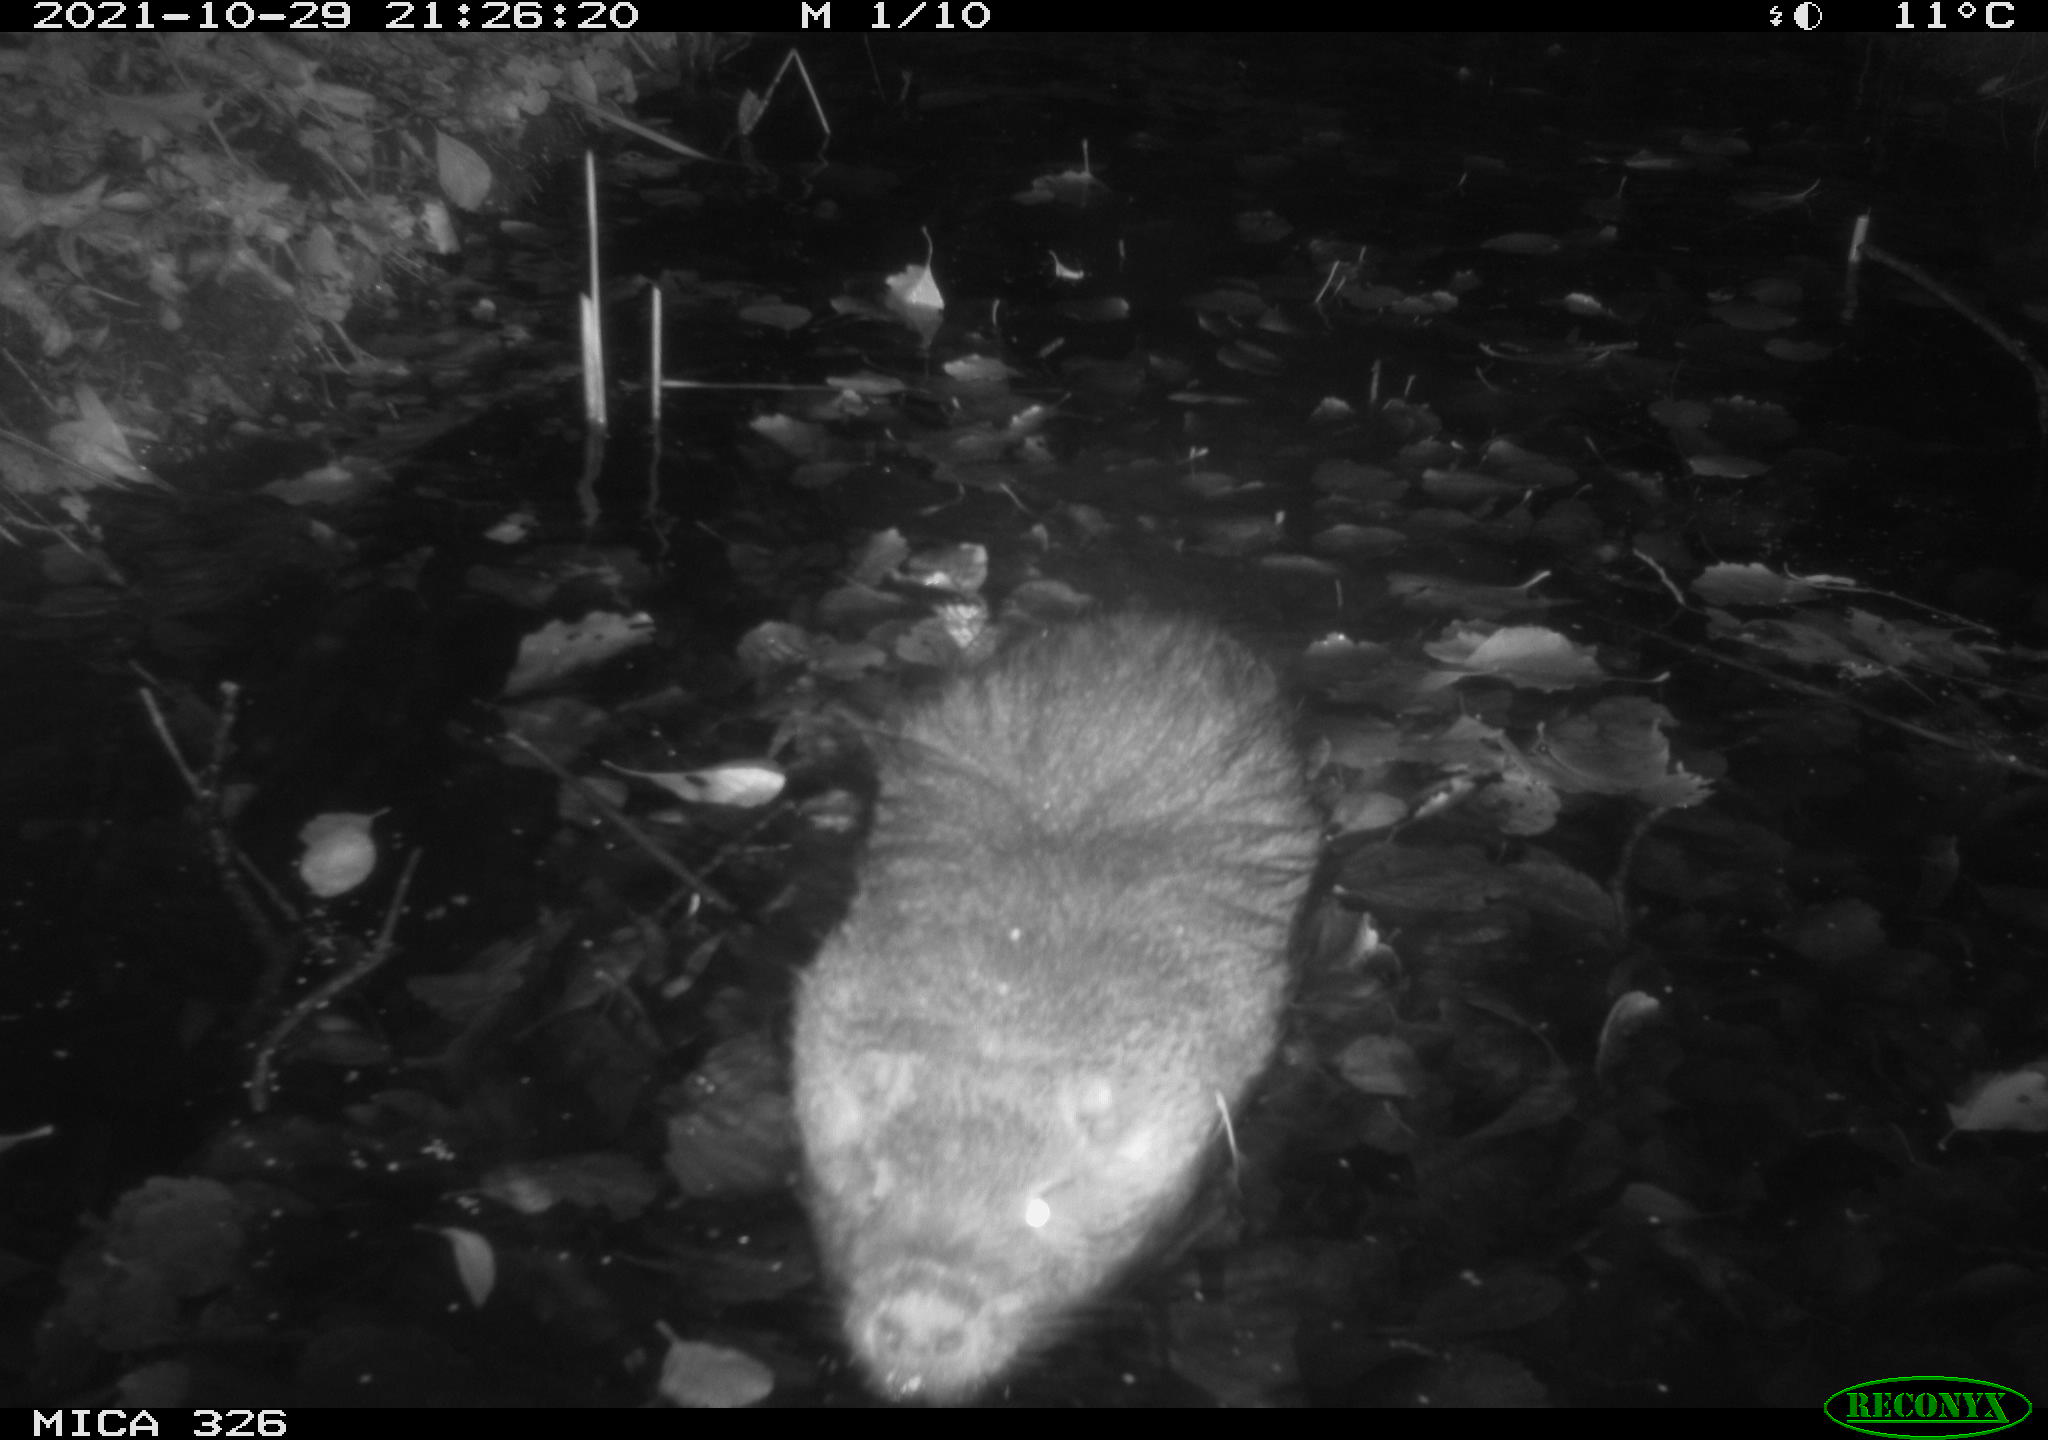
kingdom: Animalia
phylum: Chordata
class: Mammalia
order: Rodentia
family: Myocastoridae
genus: Myocastor
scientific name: Myocastor coypus
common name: Coypu
